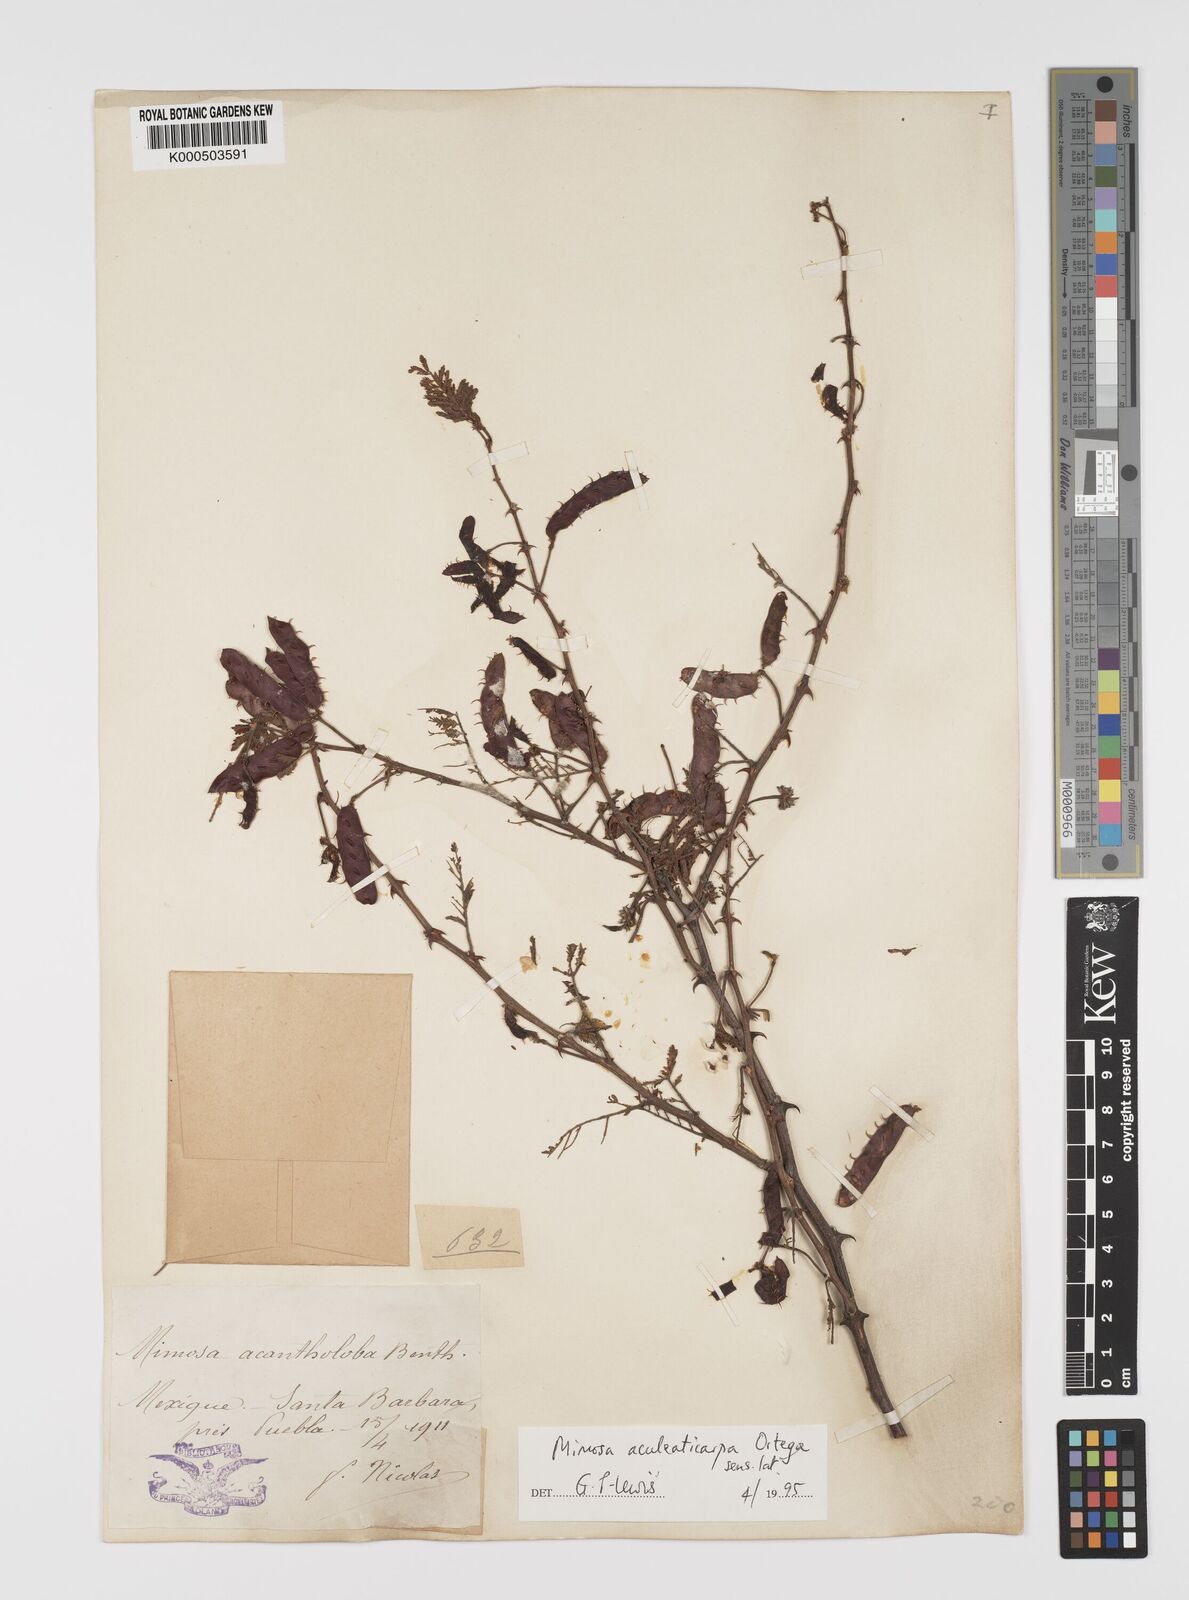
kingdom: Plantae
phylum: Tracheophyta
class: Magnoliopsida
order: Fabales
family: Fabaceae
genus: Mimosa
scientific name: Mimosa aculeaticarpa
